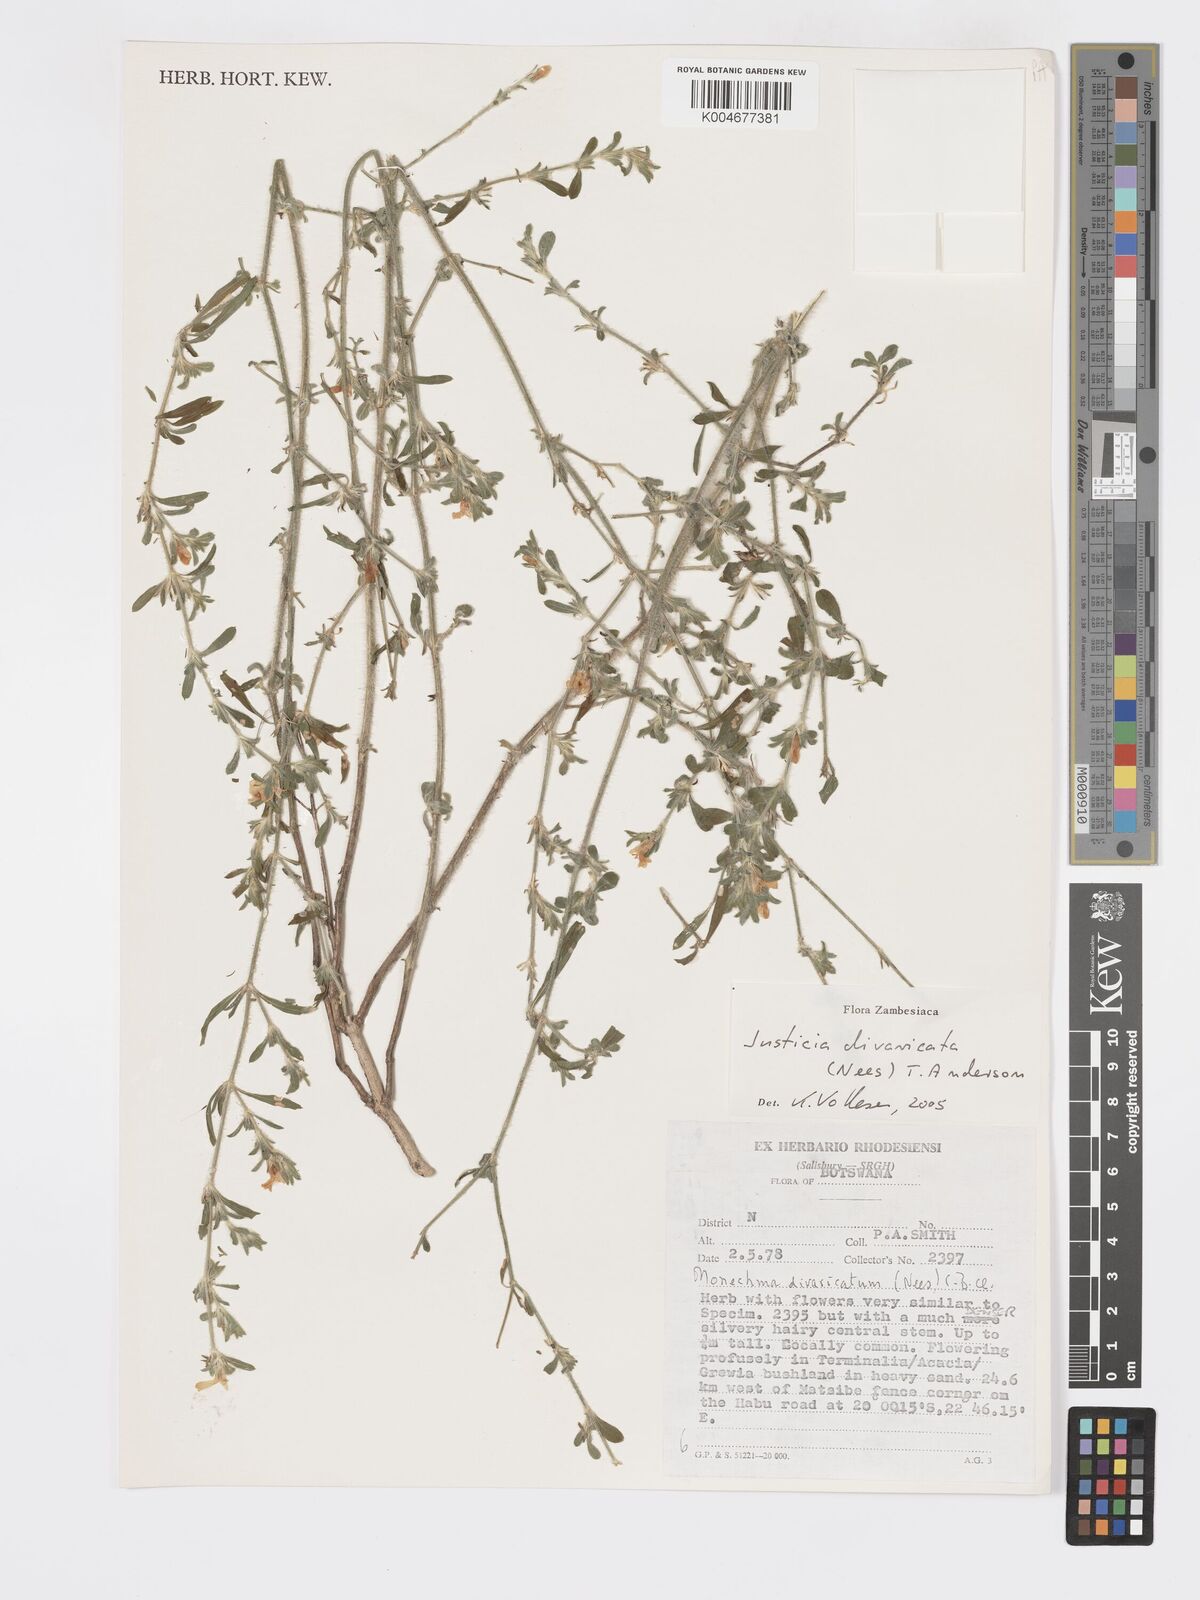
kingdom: Plantae
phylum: Tracheophyta
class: Magnoliopsida
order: Lamiales
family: Acanthaceae
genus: Pogonospermum
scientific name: Pogonospermum
